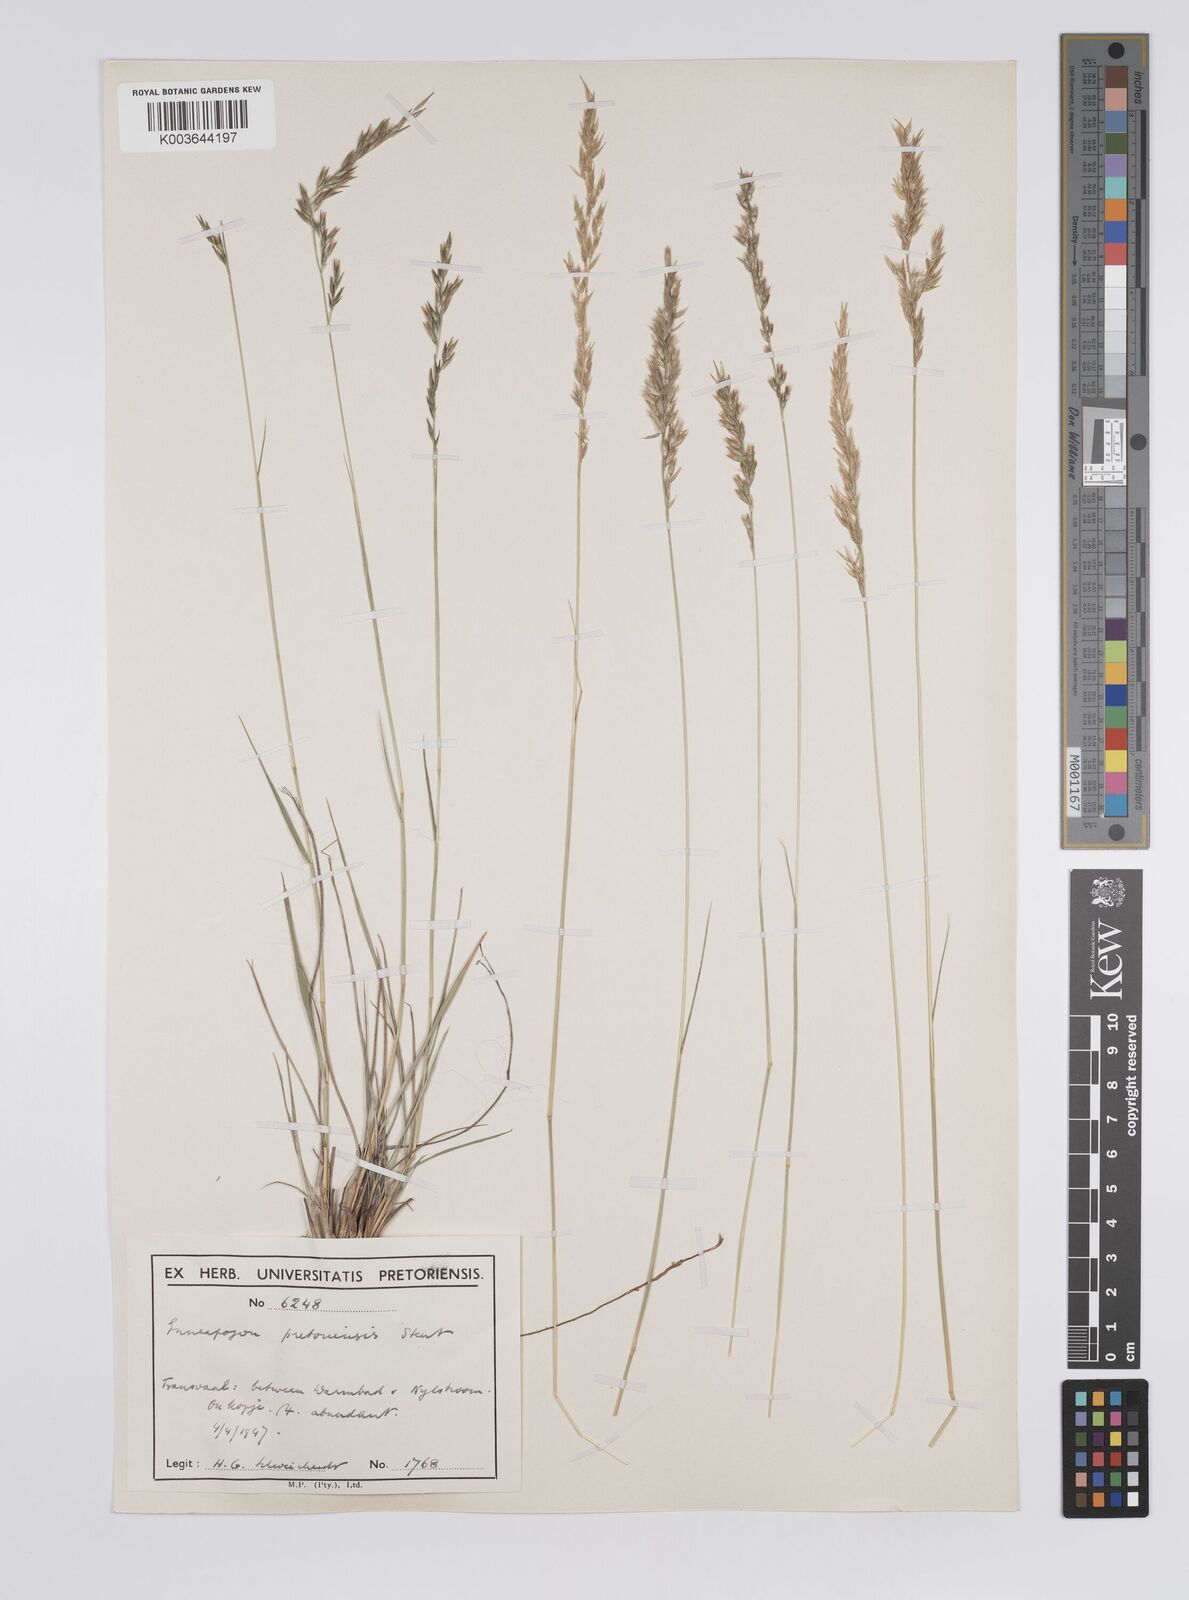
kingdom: Plantae
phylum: Tracheophyta
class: Liliopsida
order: Poales
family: Poaceae
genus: Enneapogon
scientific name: Enneapogon pretoriensis
